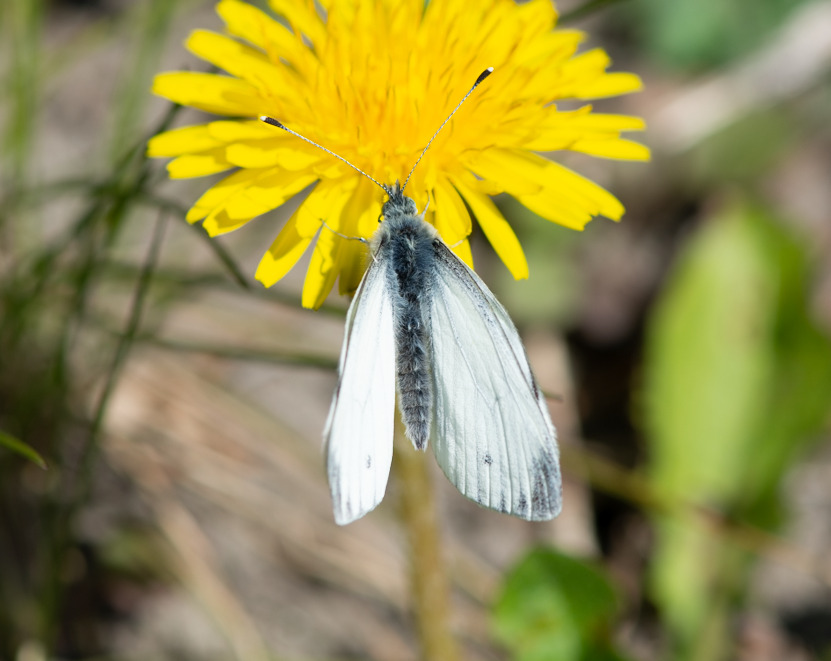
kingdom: Animalia
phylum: Arthropoda
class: Insecta
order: Lepidoptera
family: Pieridae
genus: Pieris
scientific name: Pieris napi
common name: Grønåret kålsommerfugl
